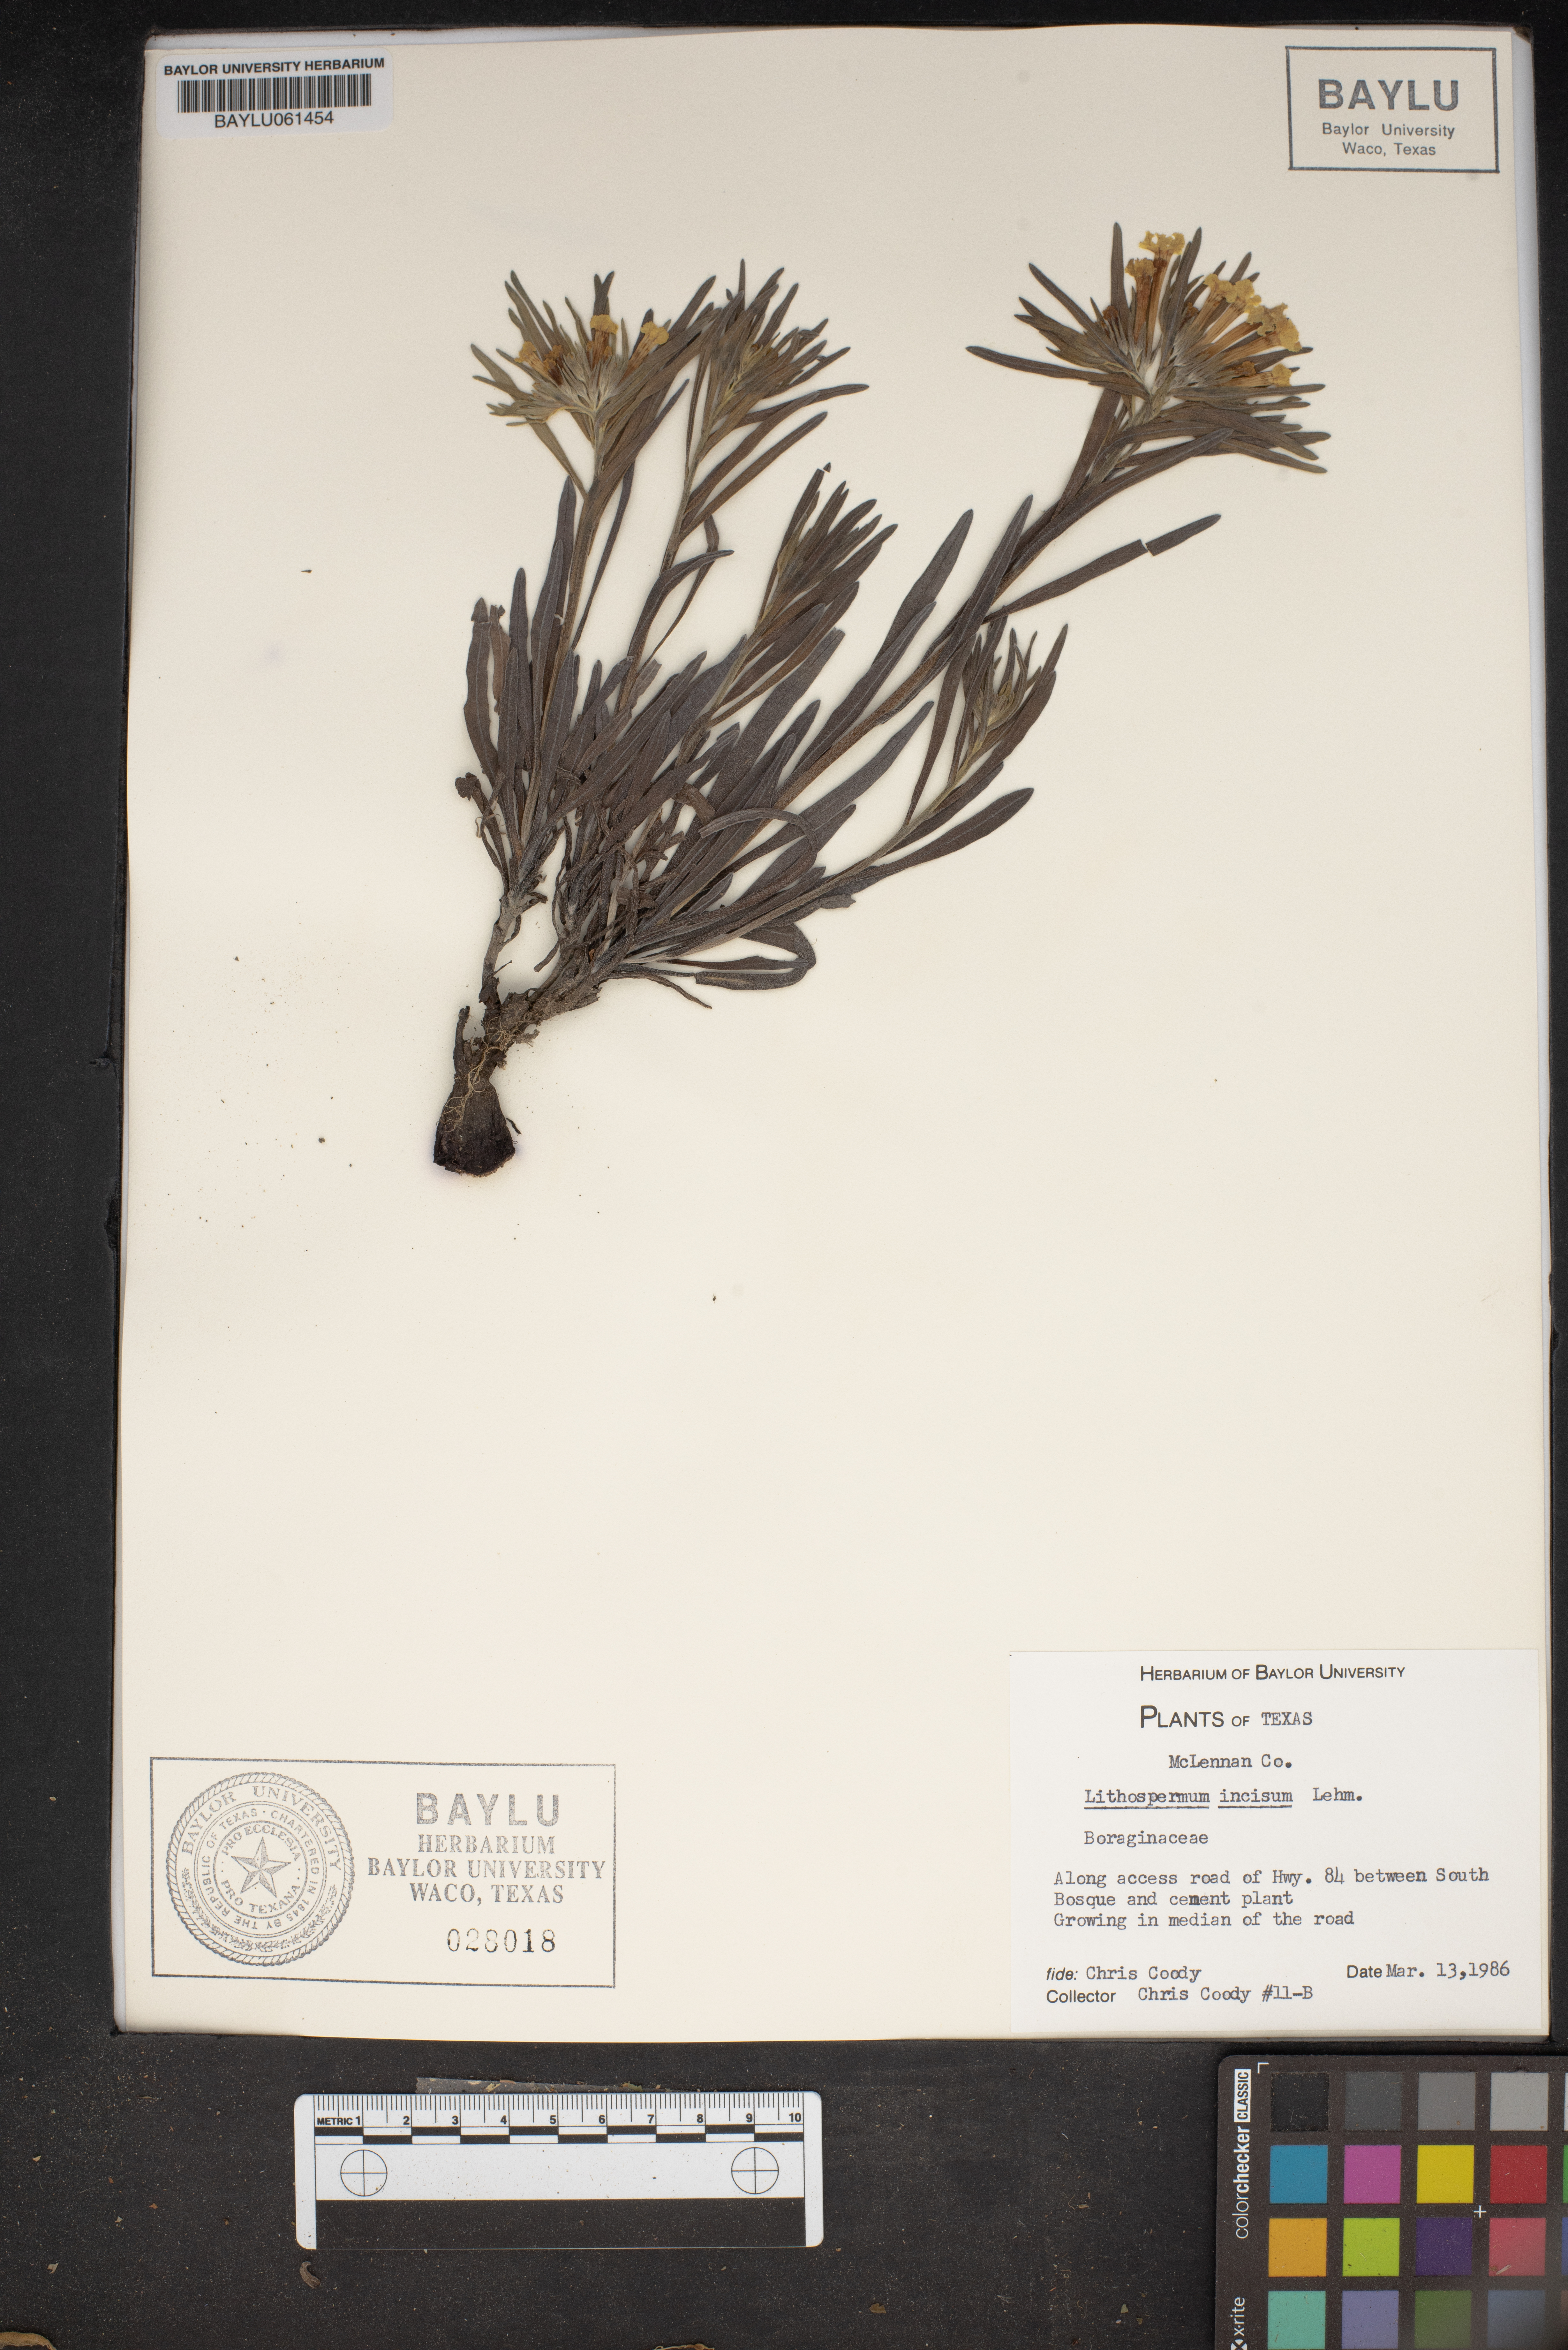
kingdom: Plantae
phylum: Tracheophyta
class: Magnoliopsida
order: Boraginales
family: Boraginaceae
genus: Lithospermum
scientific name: Lithospermum incisum
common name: Fringed gromwell
